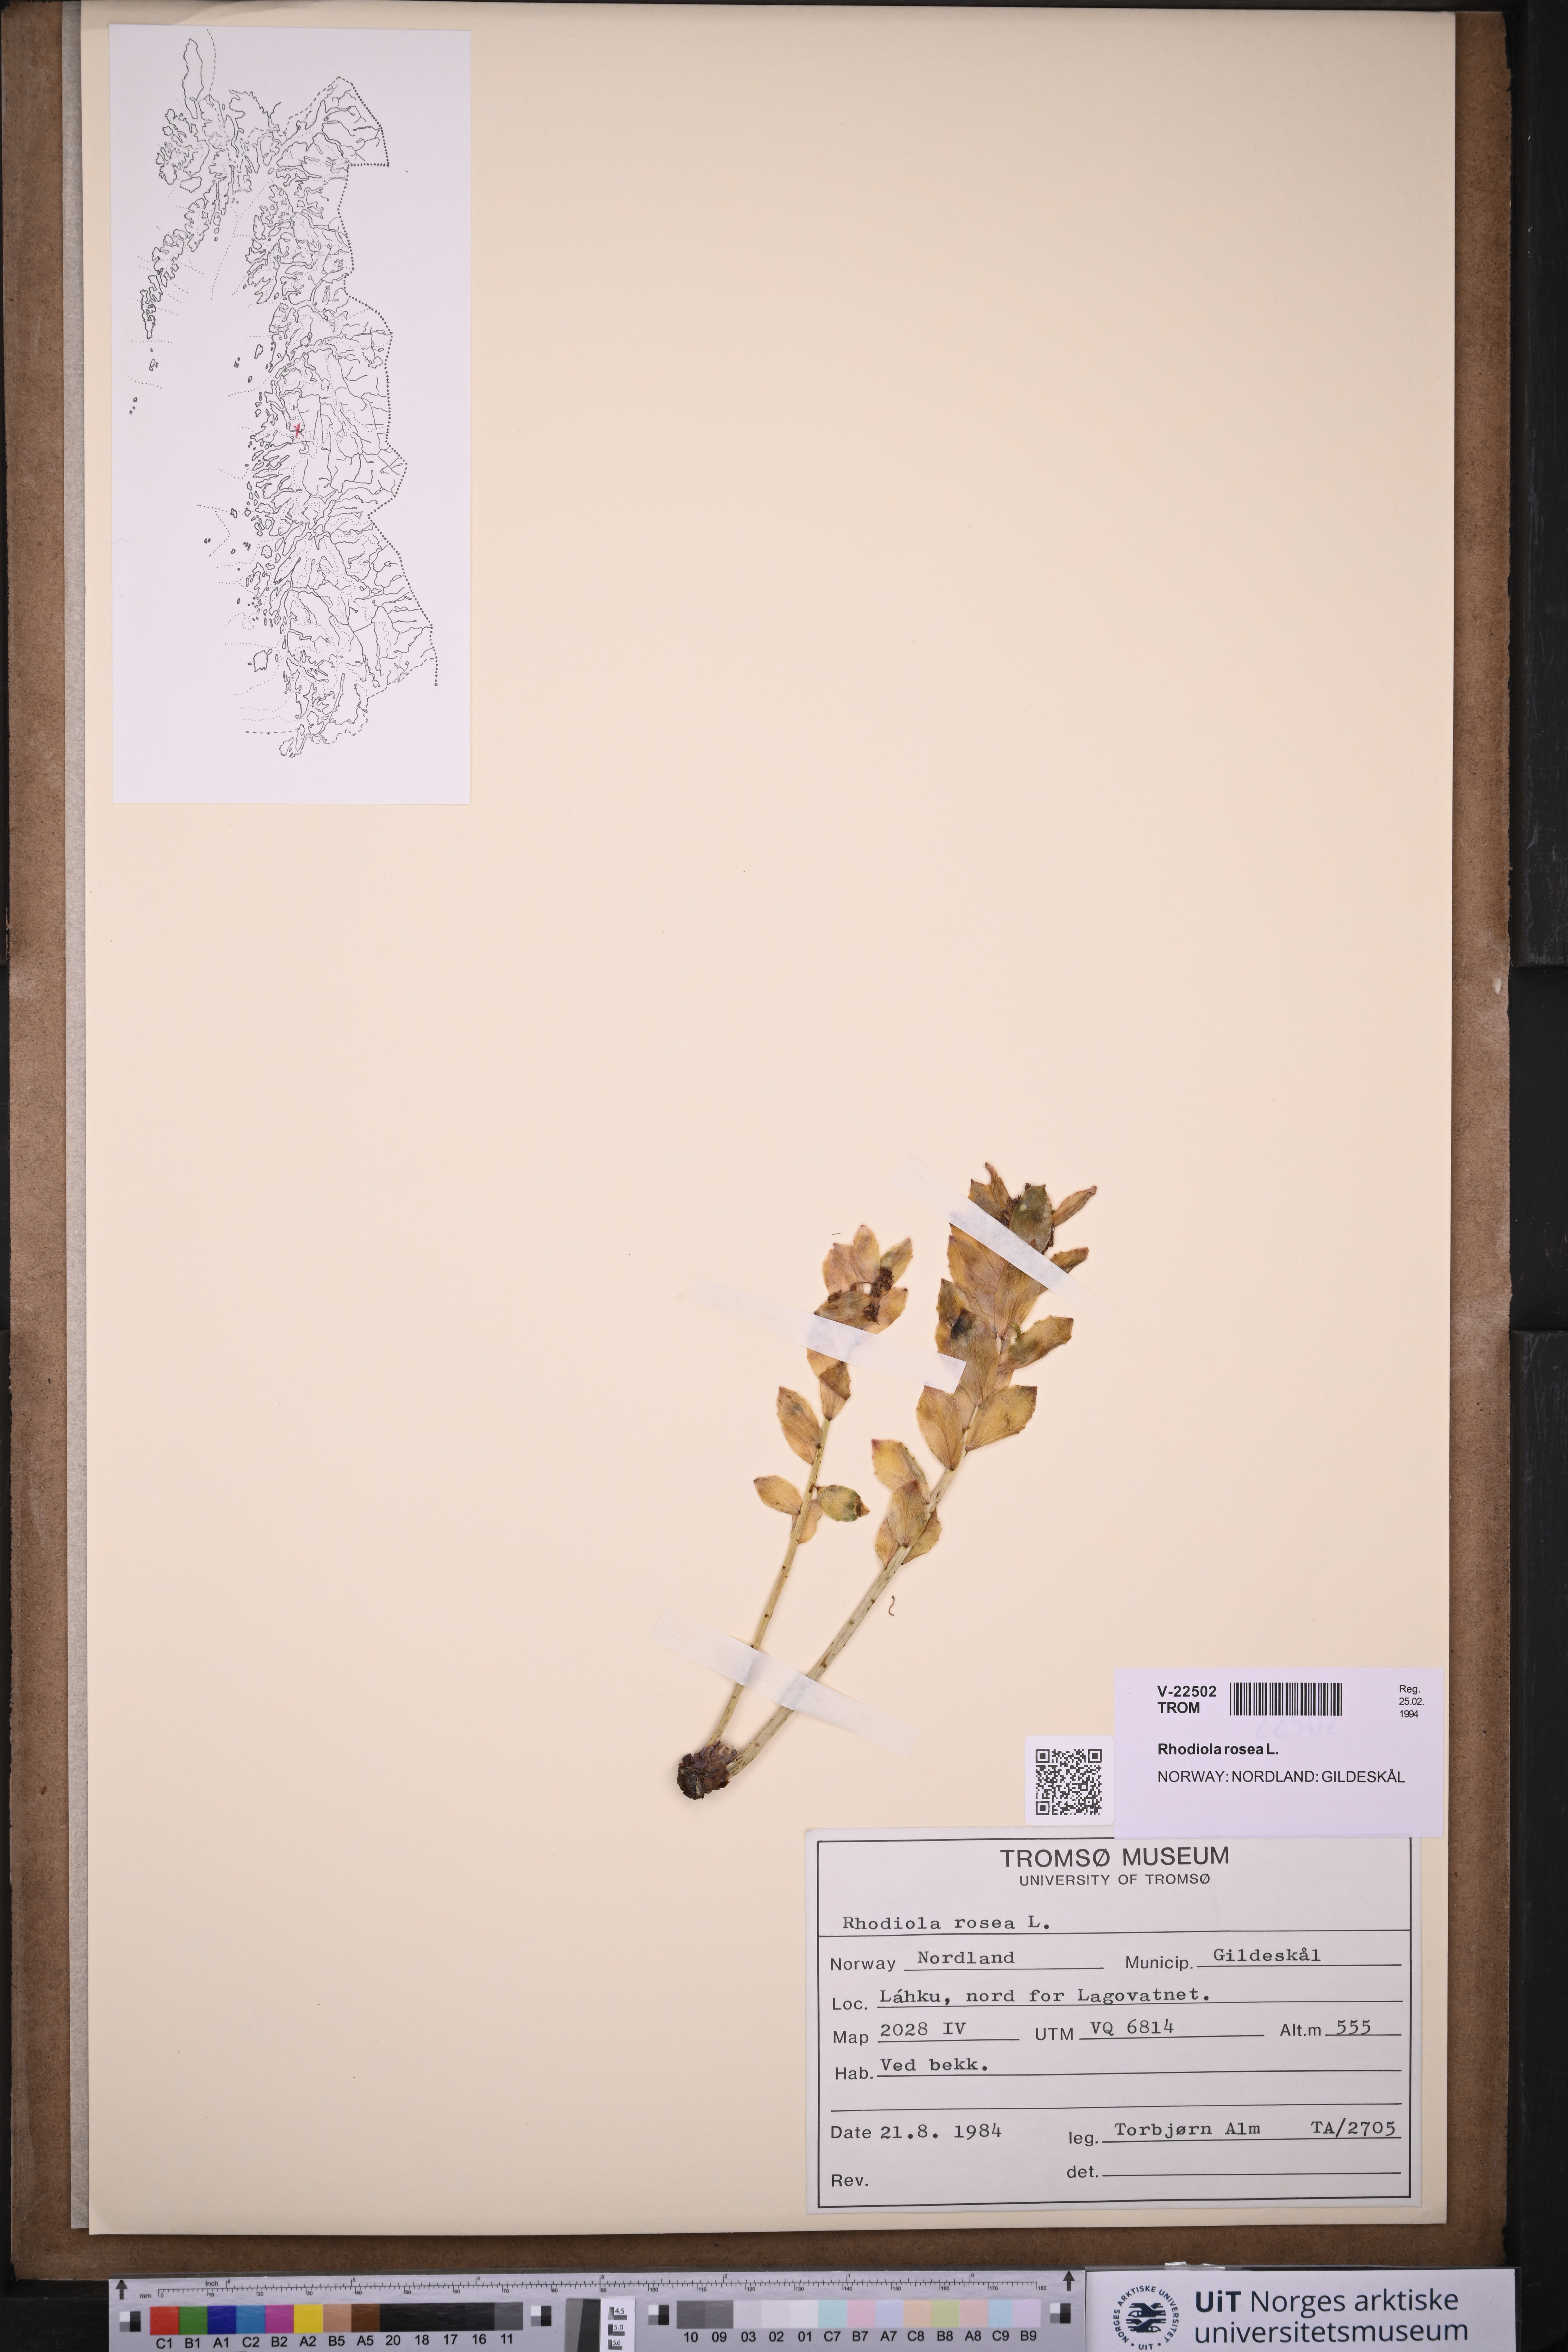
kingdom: Plantae
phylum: Tracheophyta
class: Magnoliopsida
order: Saxifragales
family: Crassulaceae
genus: Rhodiola
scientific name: Rhodiola rosea
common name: Roseroot
